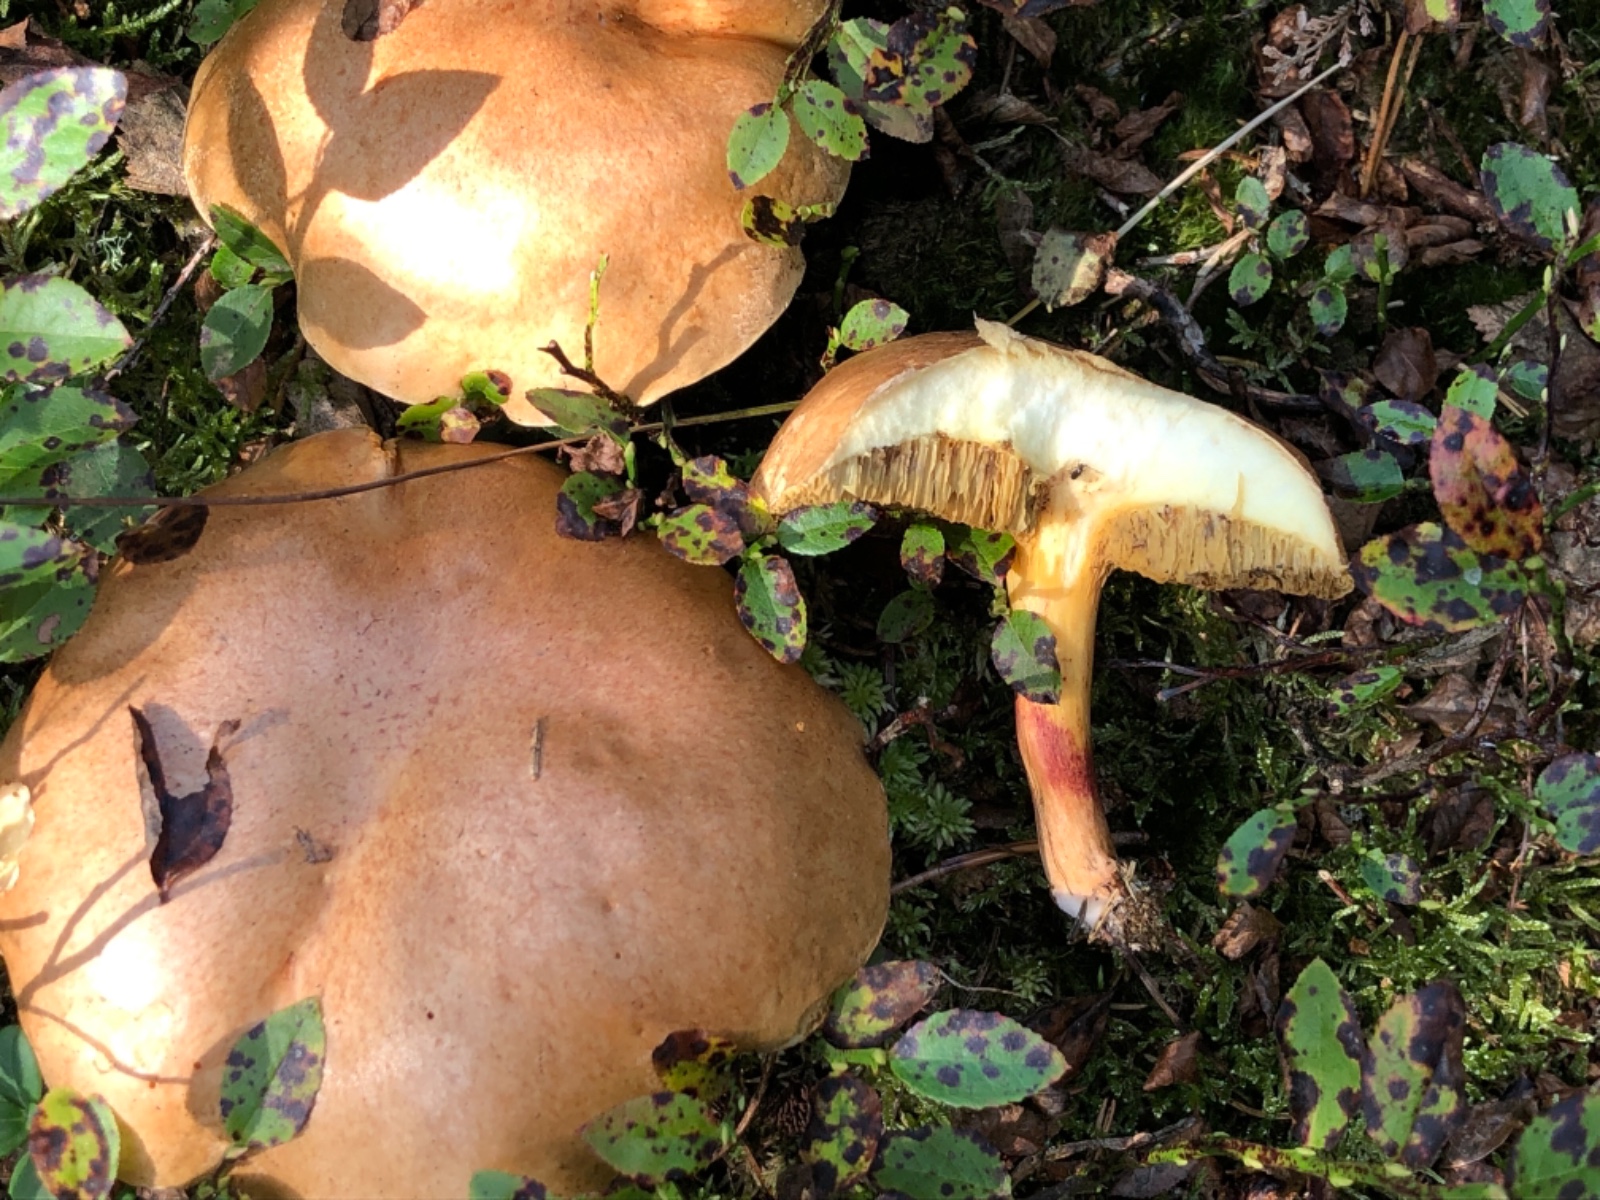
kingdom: Fungi
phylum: Basidiomycota
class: Agaricomycetes
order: Boletales
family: Suillaceae
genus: Suillus
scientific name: Suillus bovinus
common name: grovporet slimrørhat
